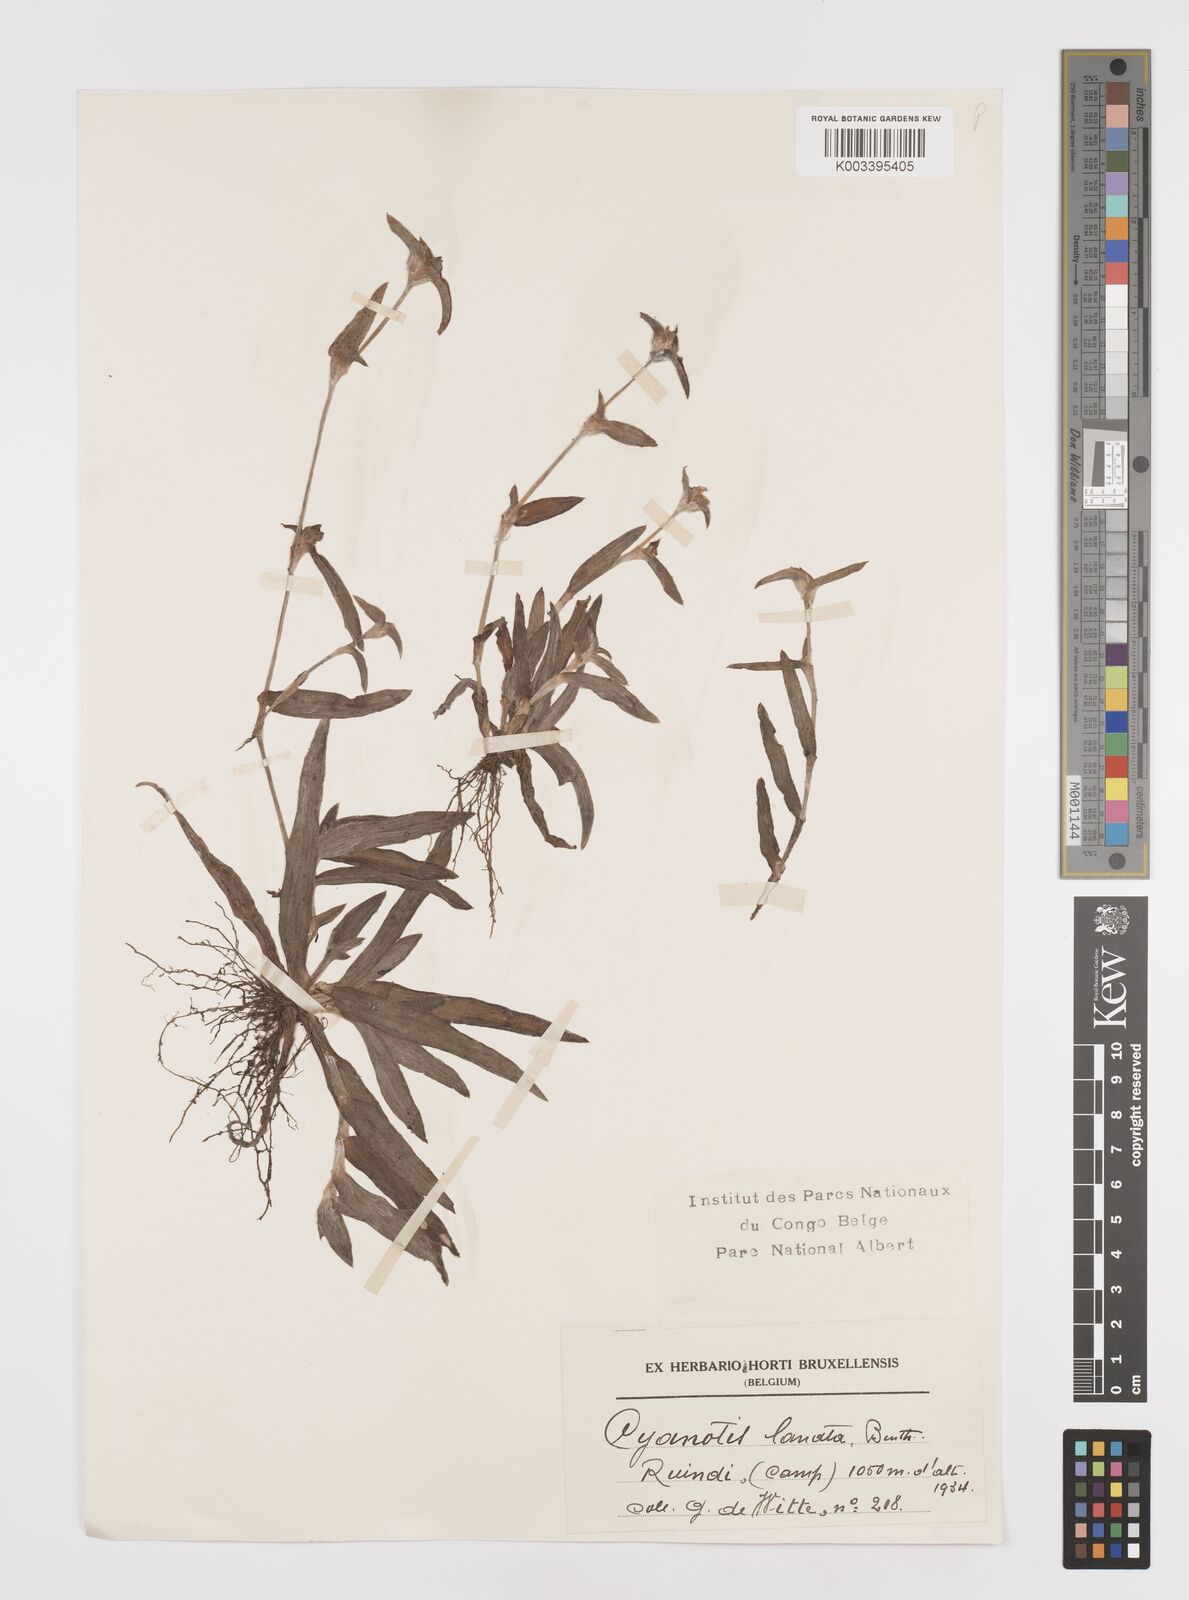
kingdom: Plantae
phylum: Tracheophyta
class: Liliopsida
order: Commelinales
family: Commelinaceae
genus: Cyanotis
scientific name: Cyanotis lanata
